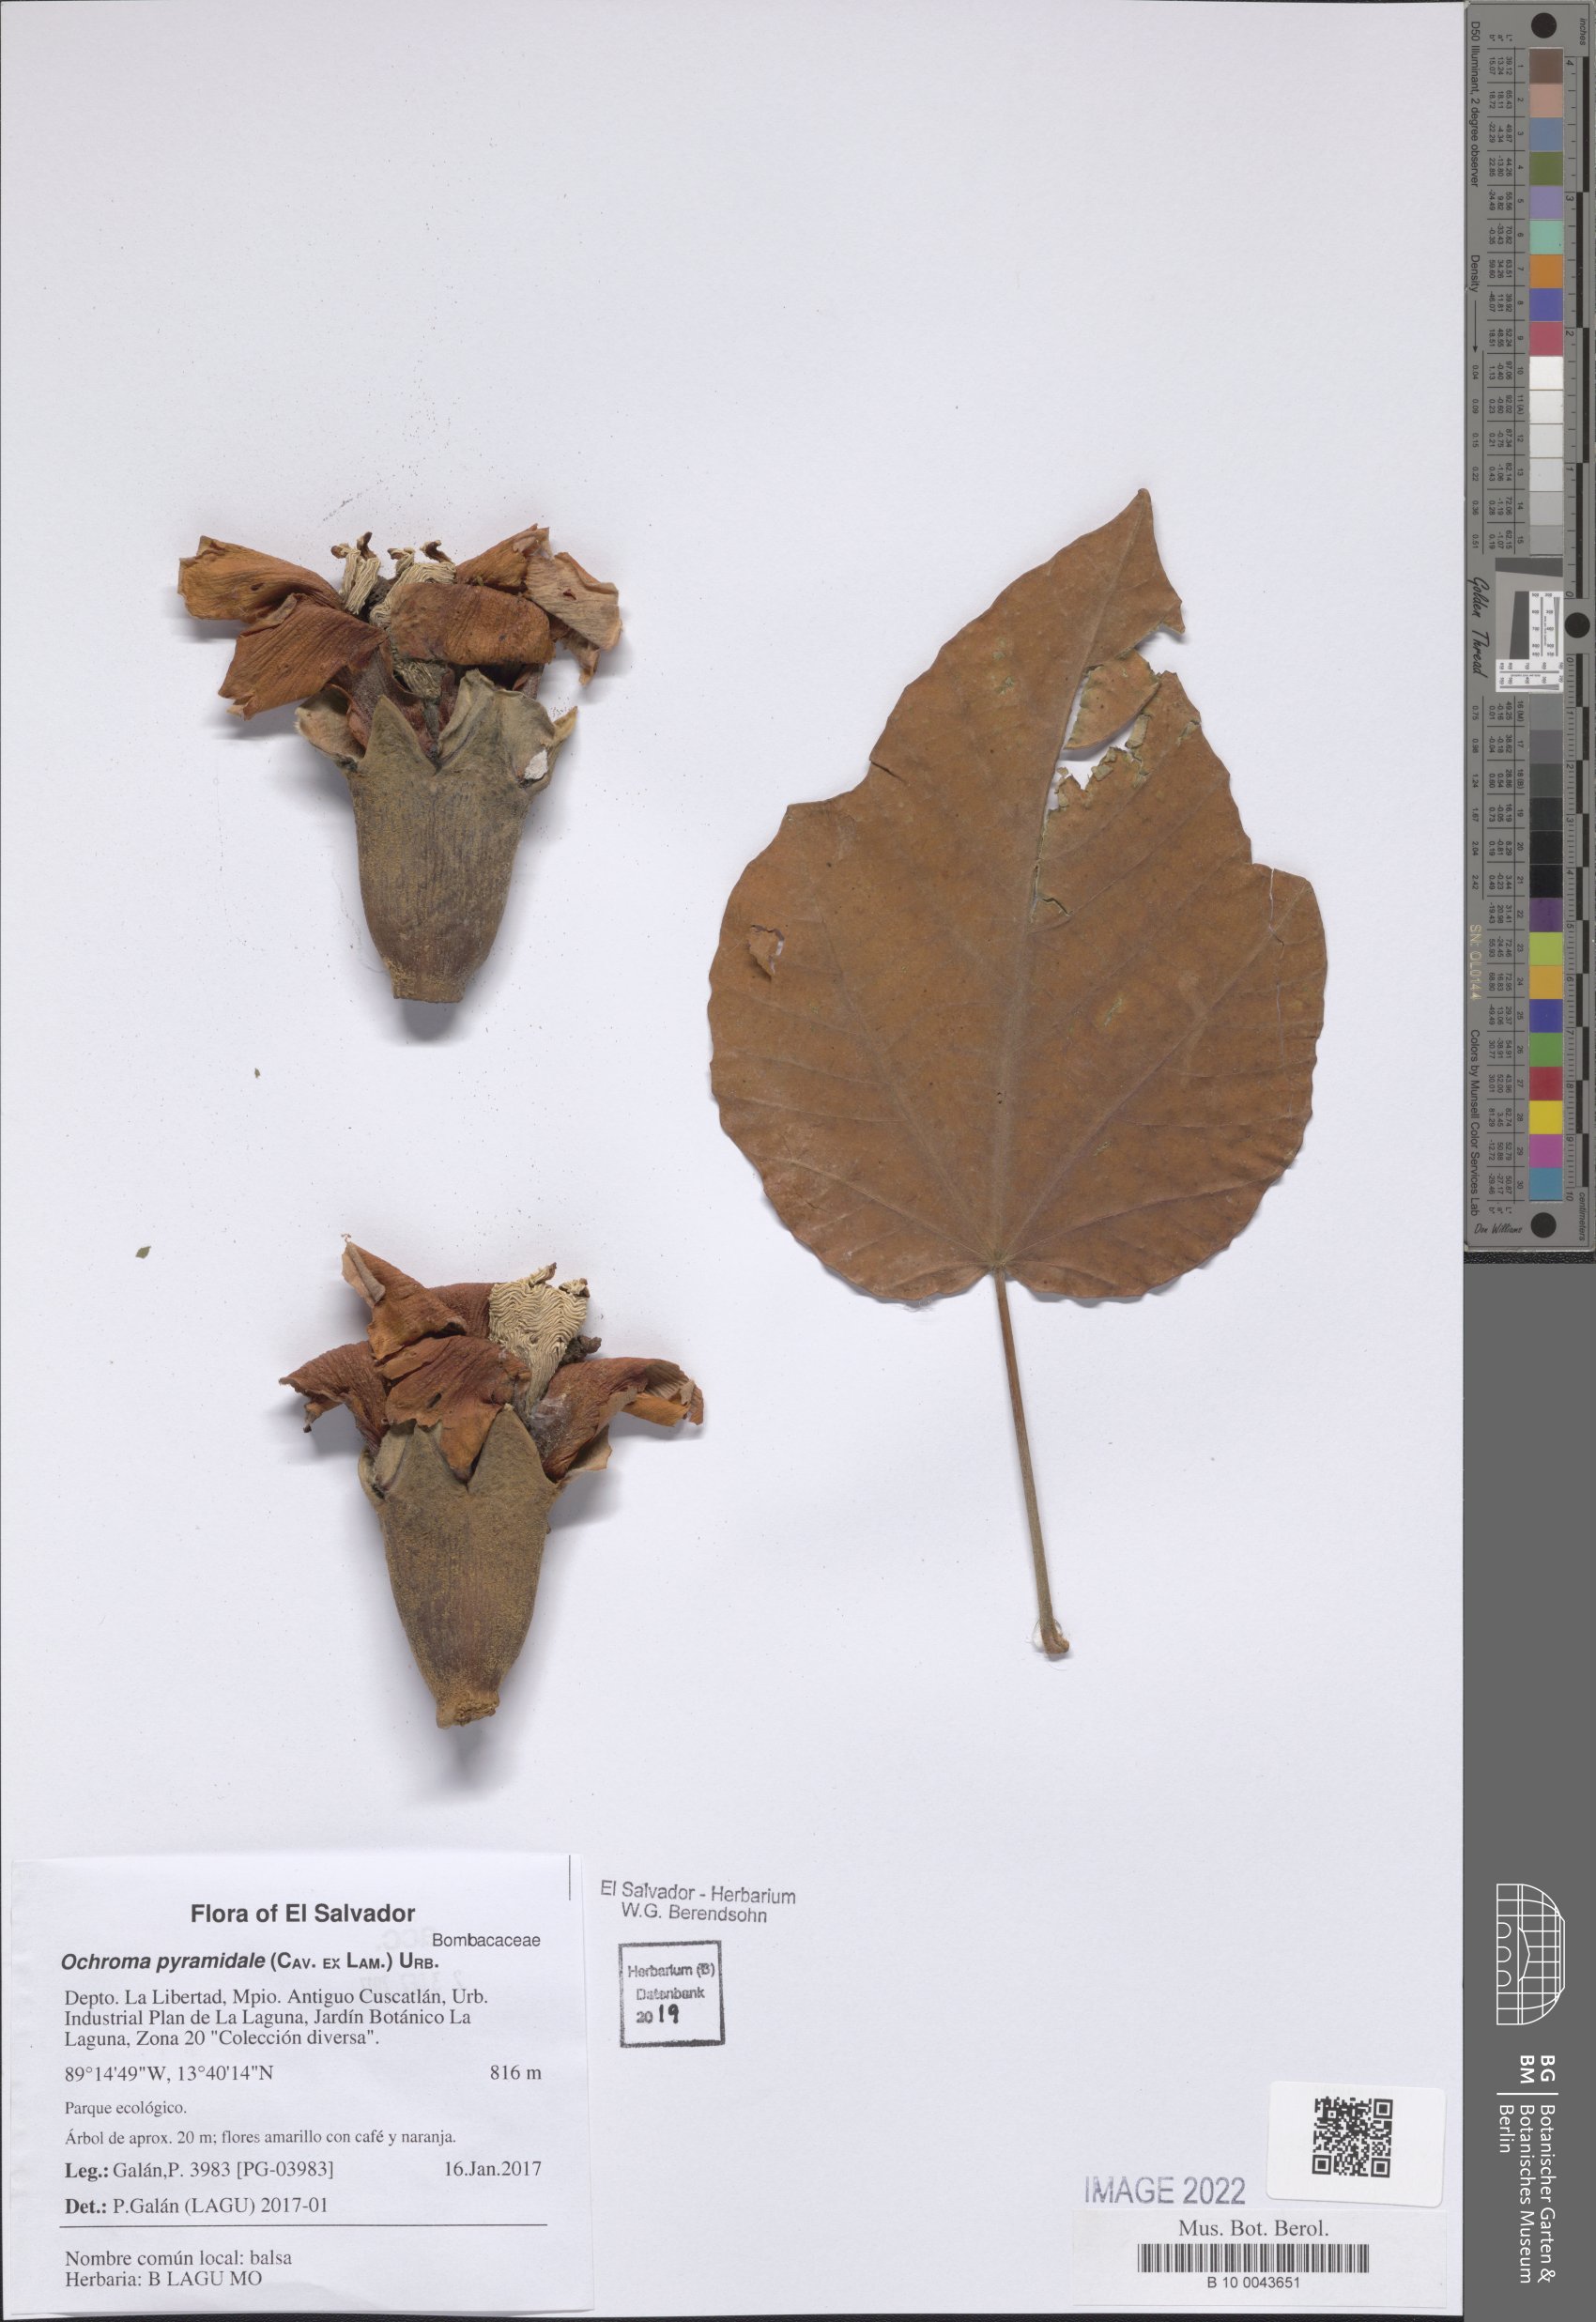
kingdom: Plantae
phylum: Tracheophyta
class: Magnoliopsida
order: Malvales
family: Malvaceae
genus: Ochroma
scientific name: Ochroma pyramidale
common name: Balsa
